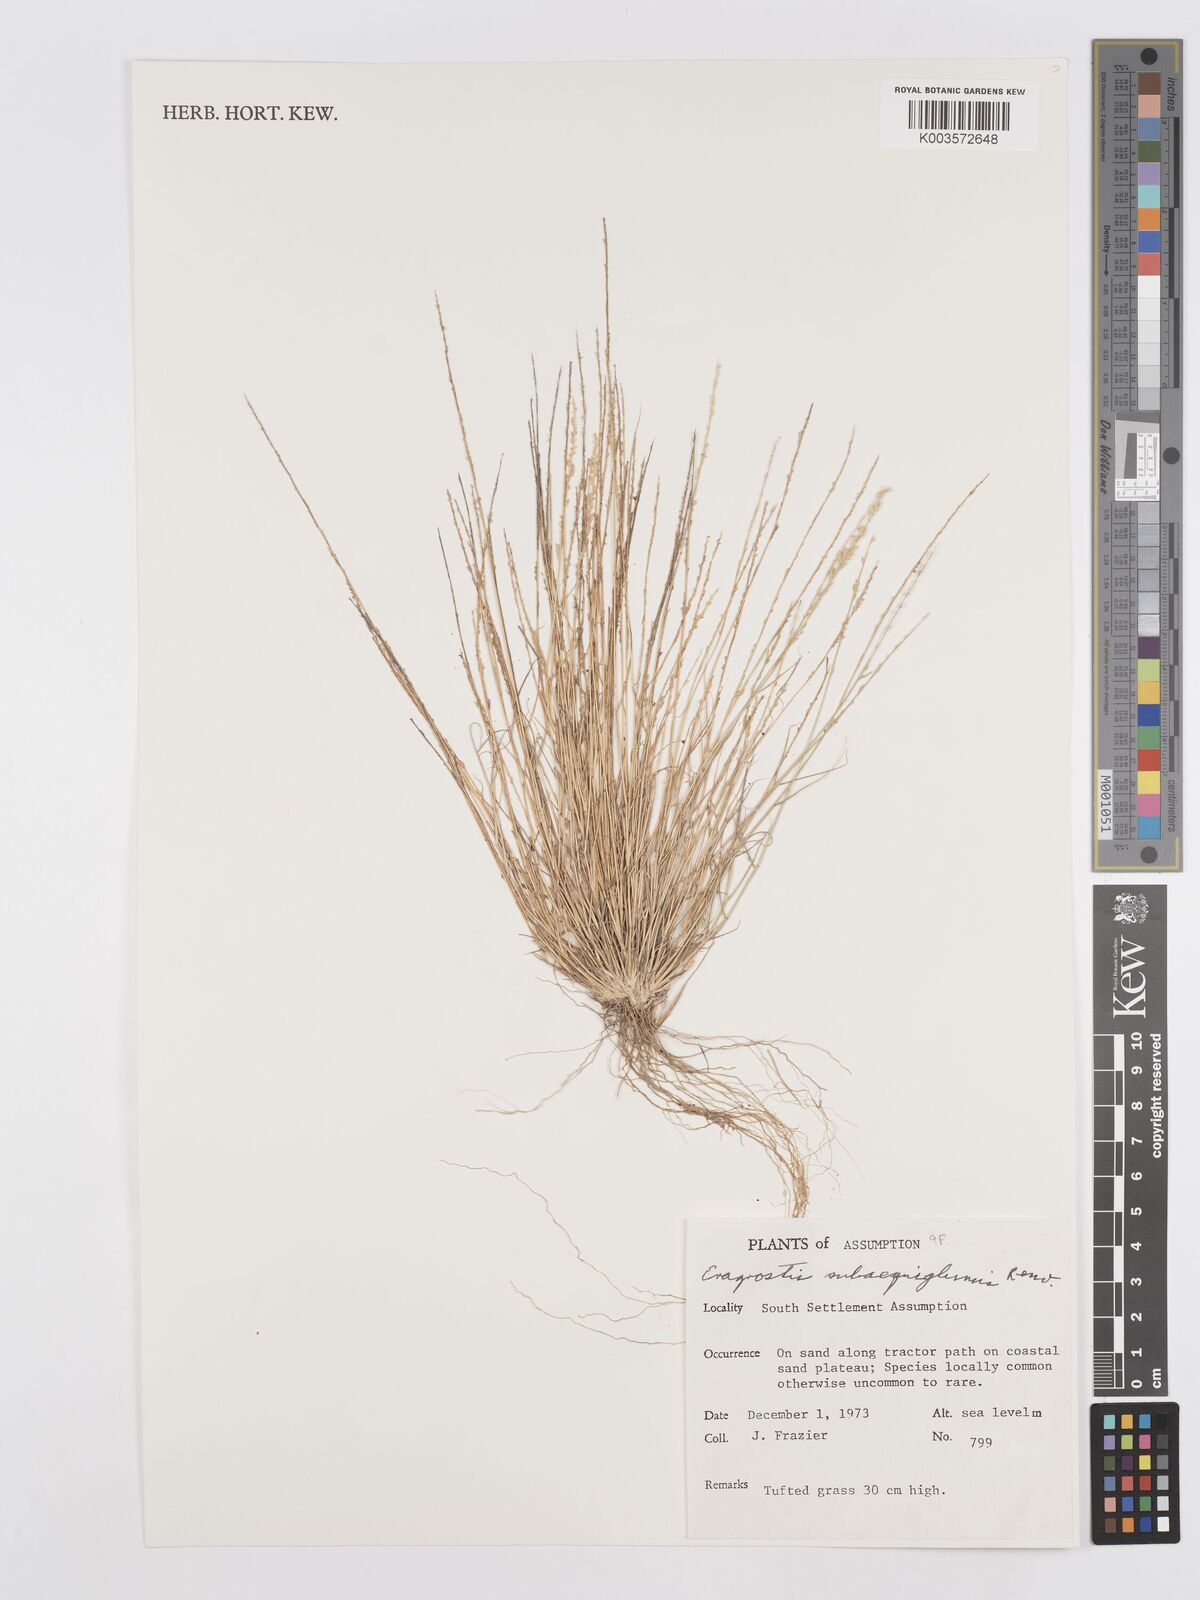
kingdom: Plantae
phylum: Tracheophyta
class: Liliopsida
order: Poales
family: Poaceae
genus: Eragrostis
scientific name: Eragrostis subaequiglumis
